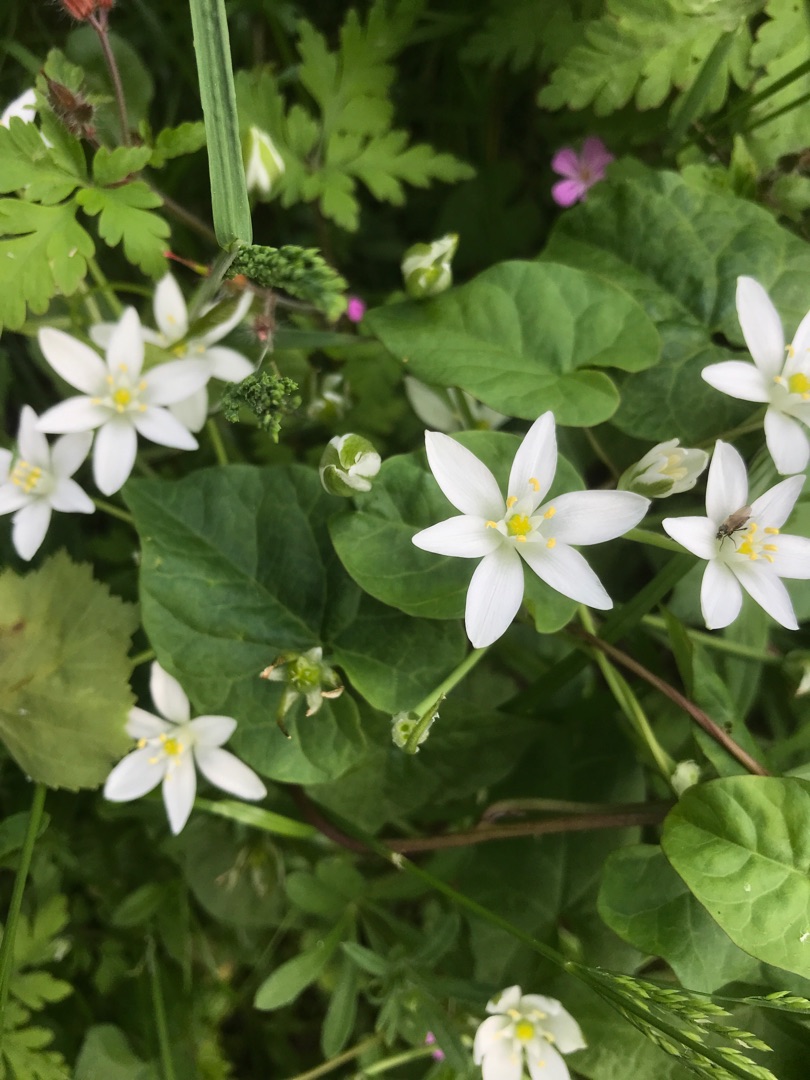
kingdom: Plantae
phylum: Tracheophyta
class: Liliopsida
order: Asparagales
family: Asparagaceae
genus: Ornithogalum
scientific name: Ornithogalum umbellatum
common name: Kost-fuglemælk
